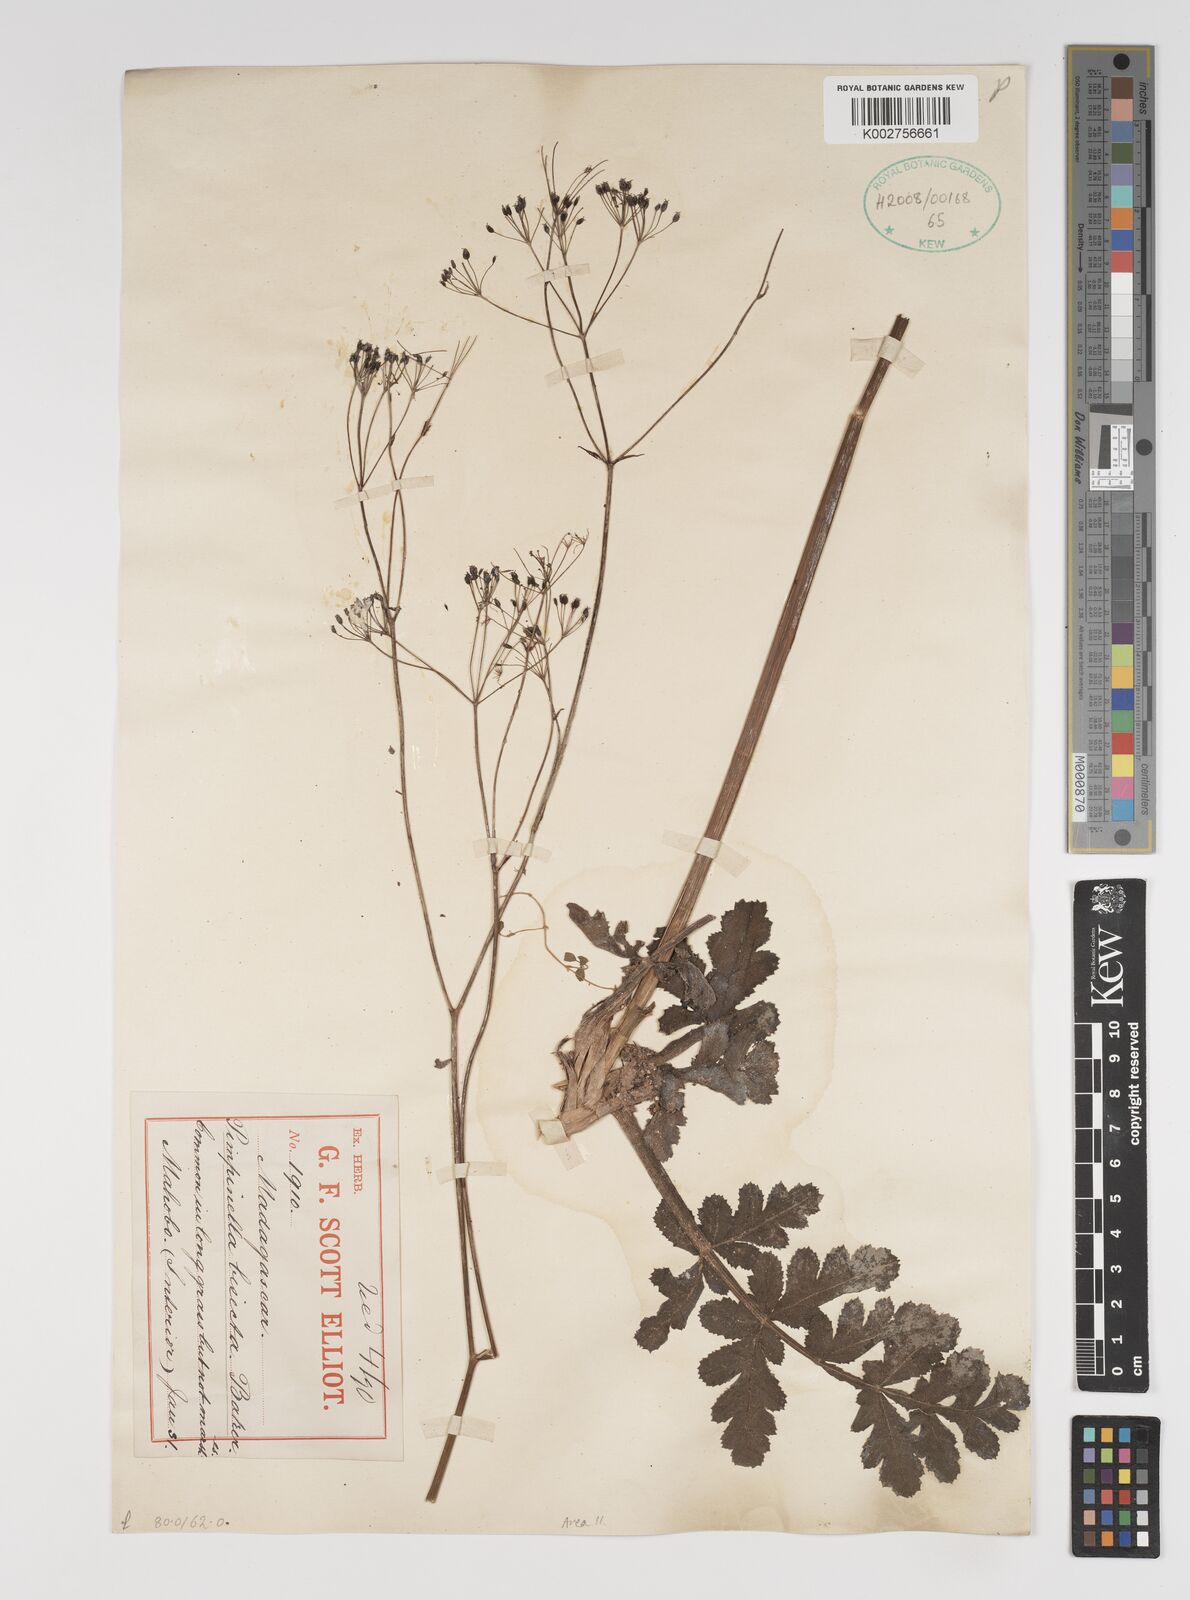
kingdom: Plantae
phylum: Tracheophyta
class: Magnoliopsida
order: Apiales
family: Apiaceae
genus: Pimpinella
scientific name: Pimpinella ebracteata
